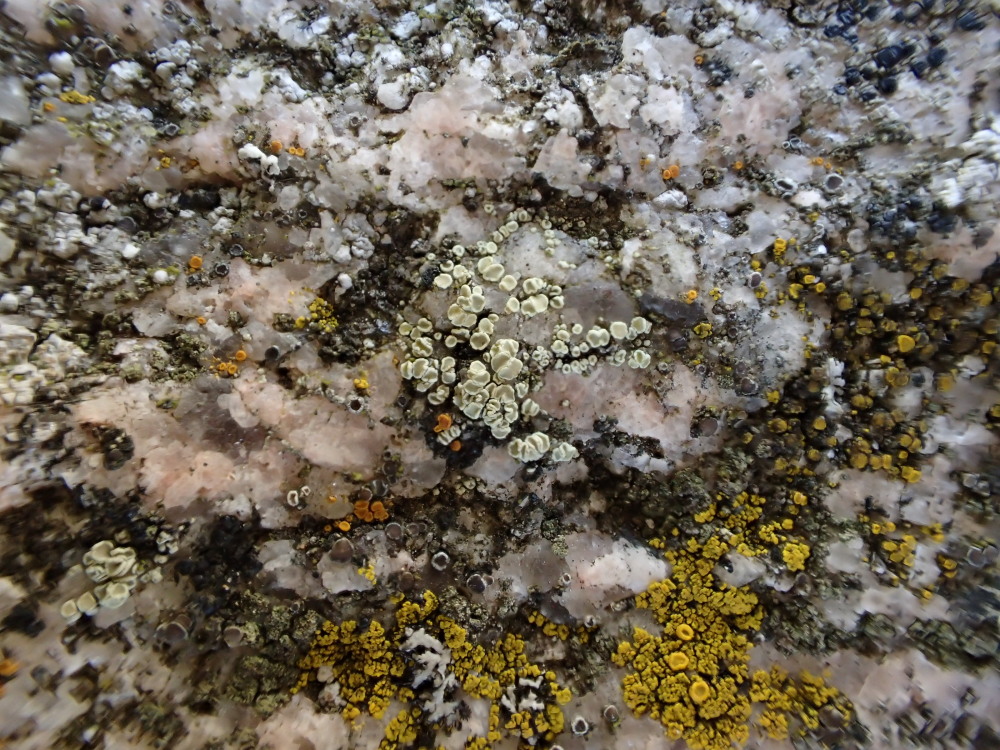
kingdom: Fungi
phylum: Ascomycota
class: Lecanoromycetes
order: Lecanorales
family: Lecanoraceae
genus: Lecanora
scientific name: Lecanora polytropa
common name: bleggrøn kantskivelav
